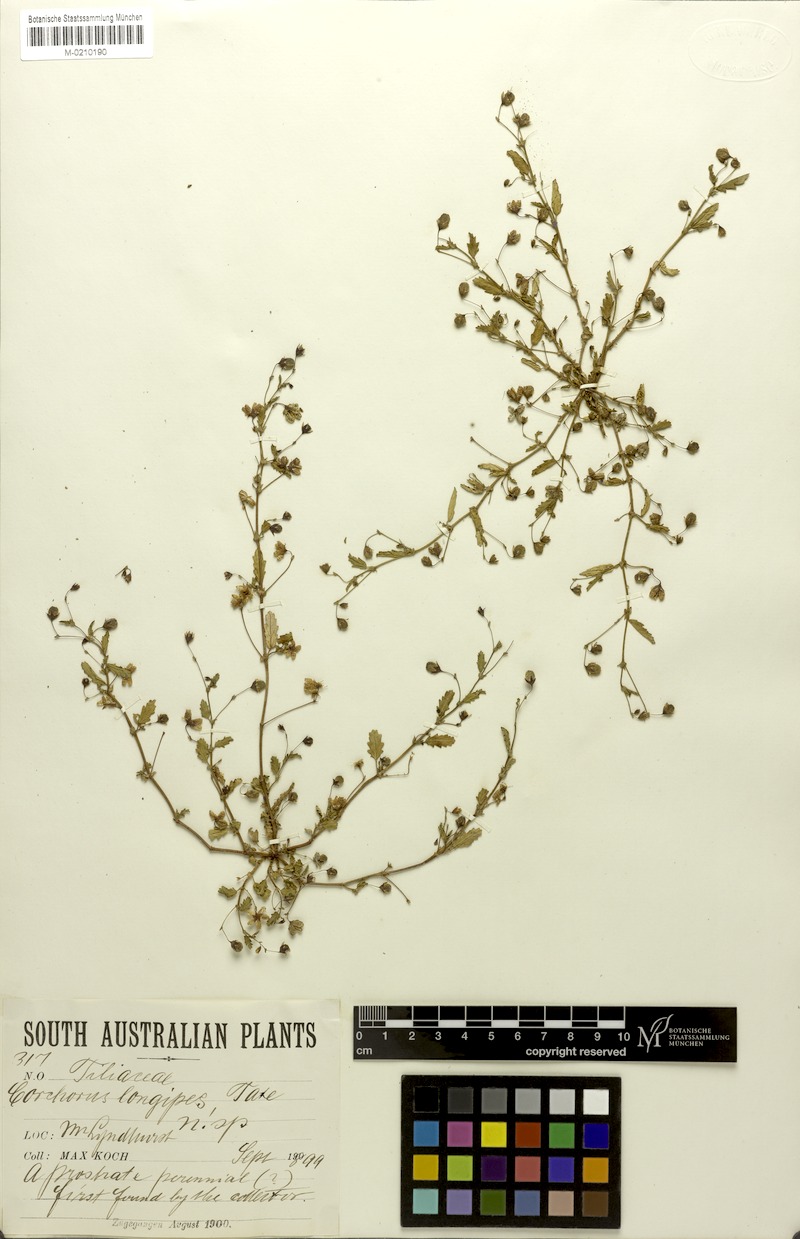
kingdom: Plantae
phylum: Tracheophyta
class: Magnoliopsida
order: Malvales
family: Malvaceae
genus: Gilesia
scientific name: Gilesia biniflora
